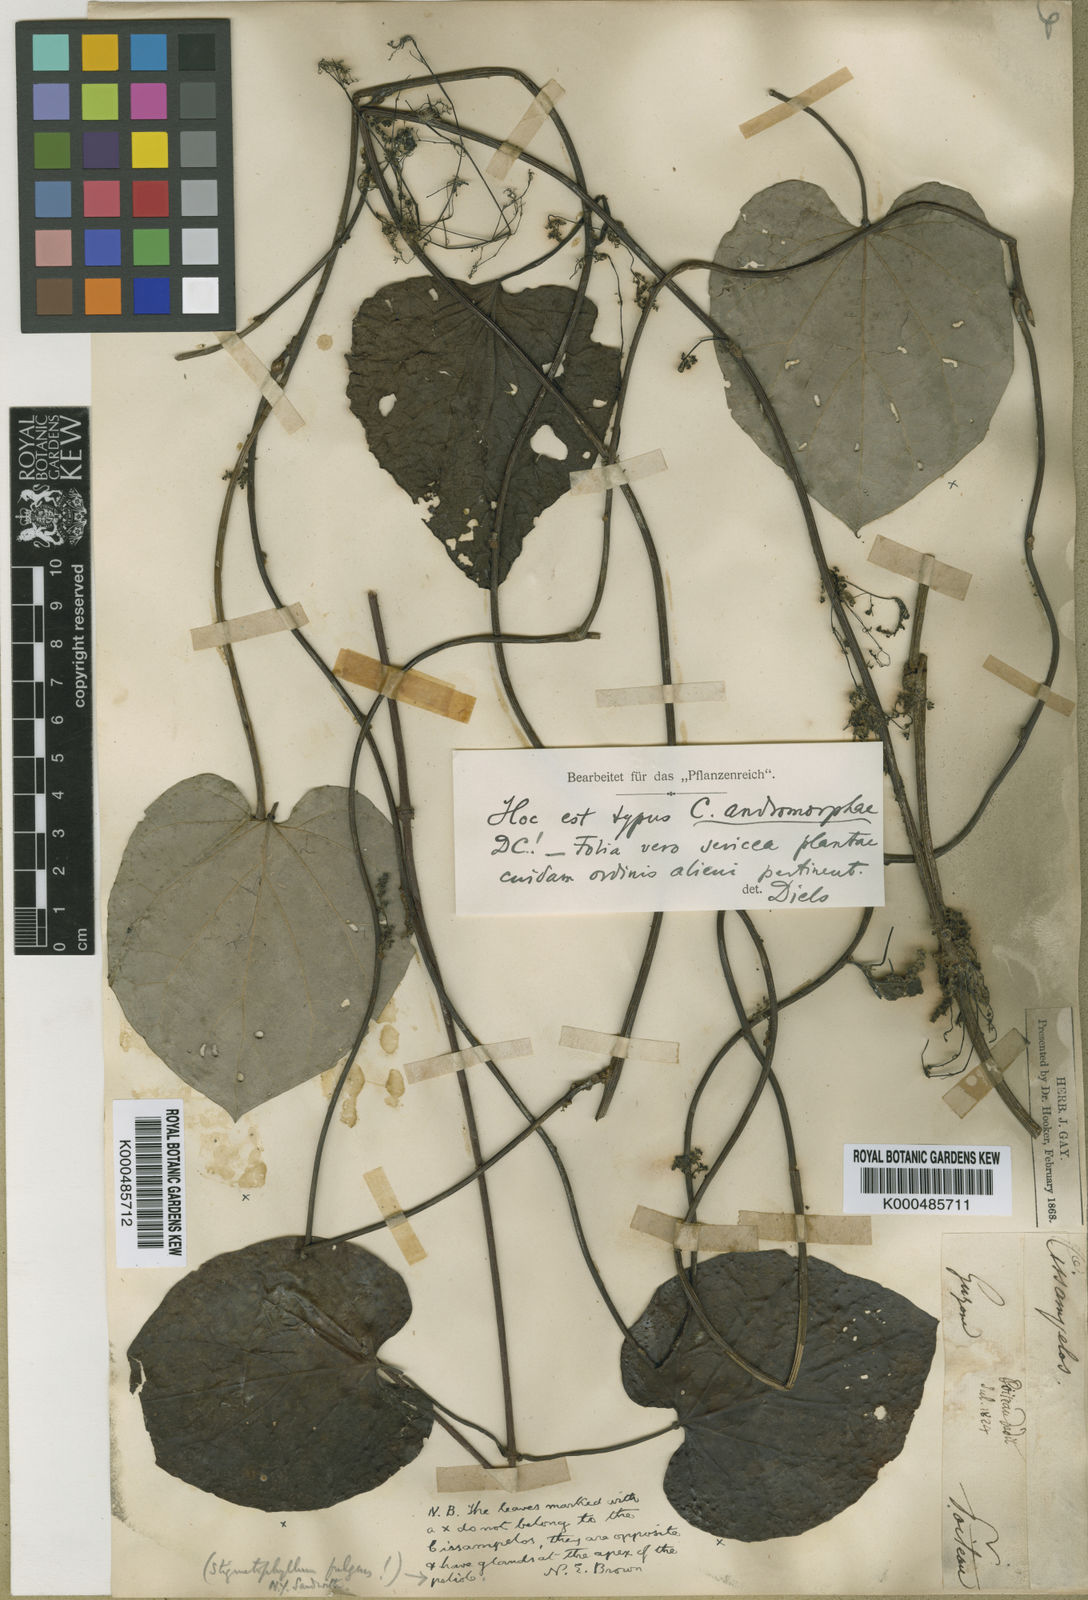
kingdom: Plantae
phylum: Tracheophyta
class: Magnoliopsida
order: Ranunculales
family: Menispermaceae
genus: Cissampelos
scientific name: Cissampelos andromorpha
